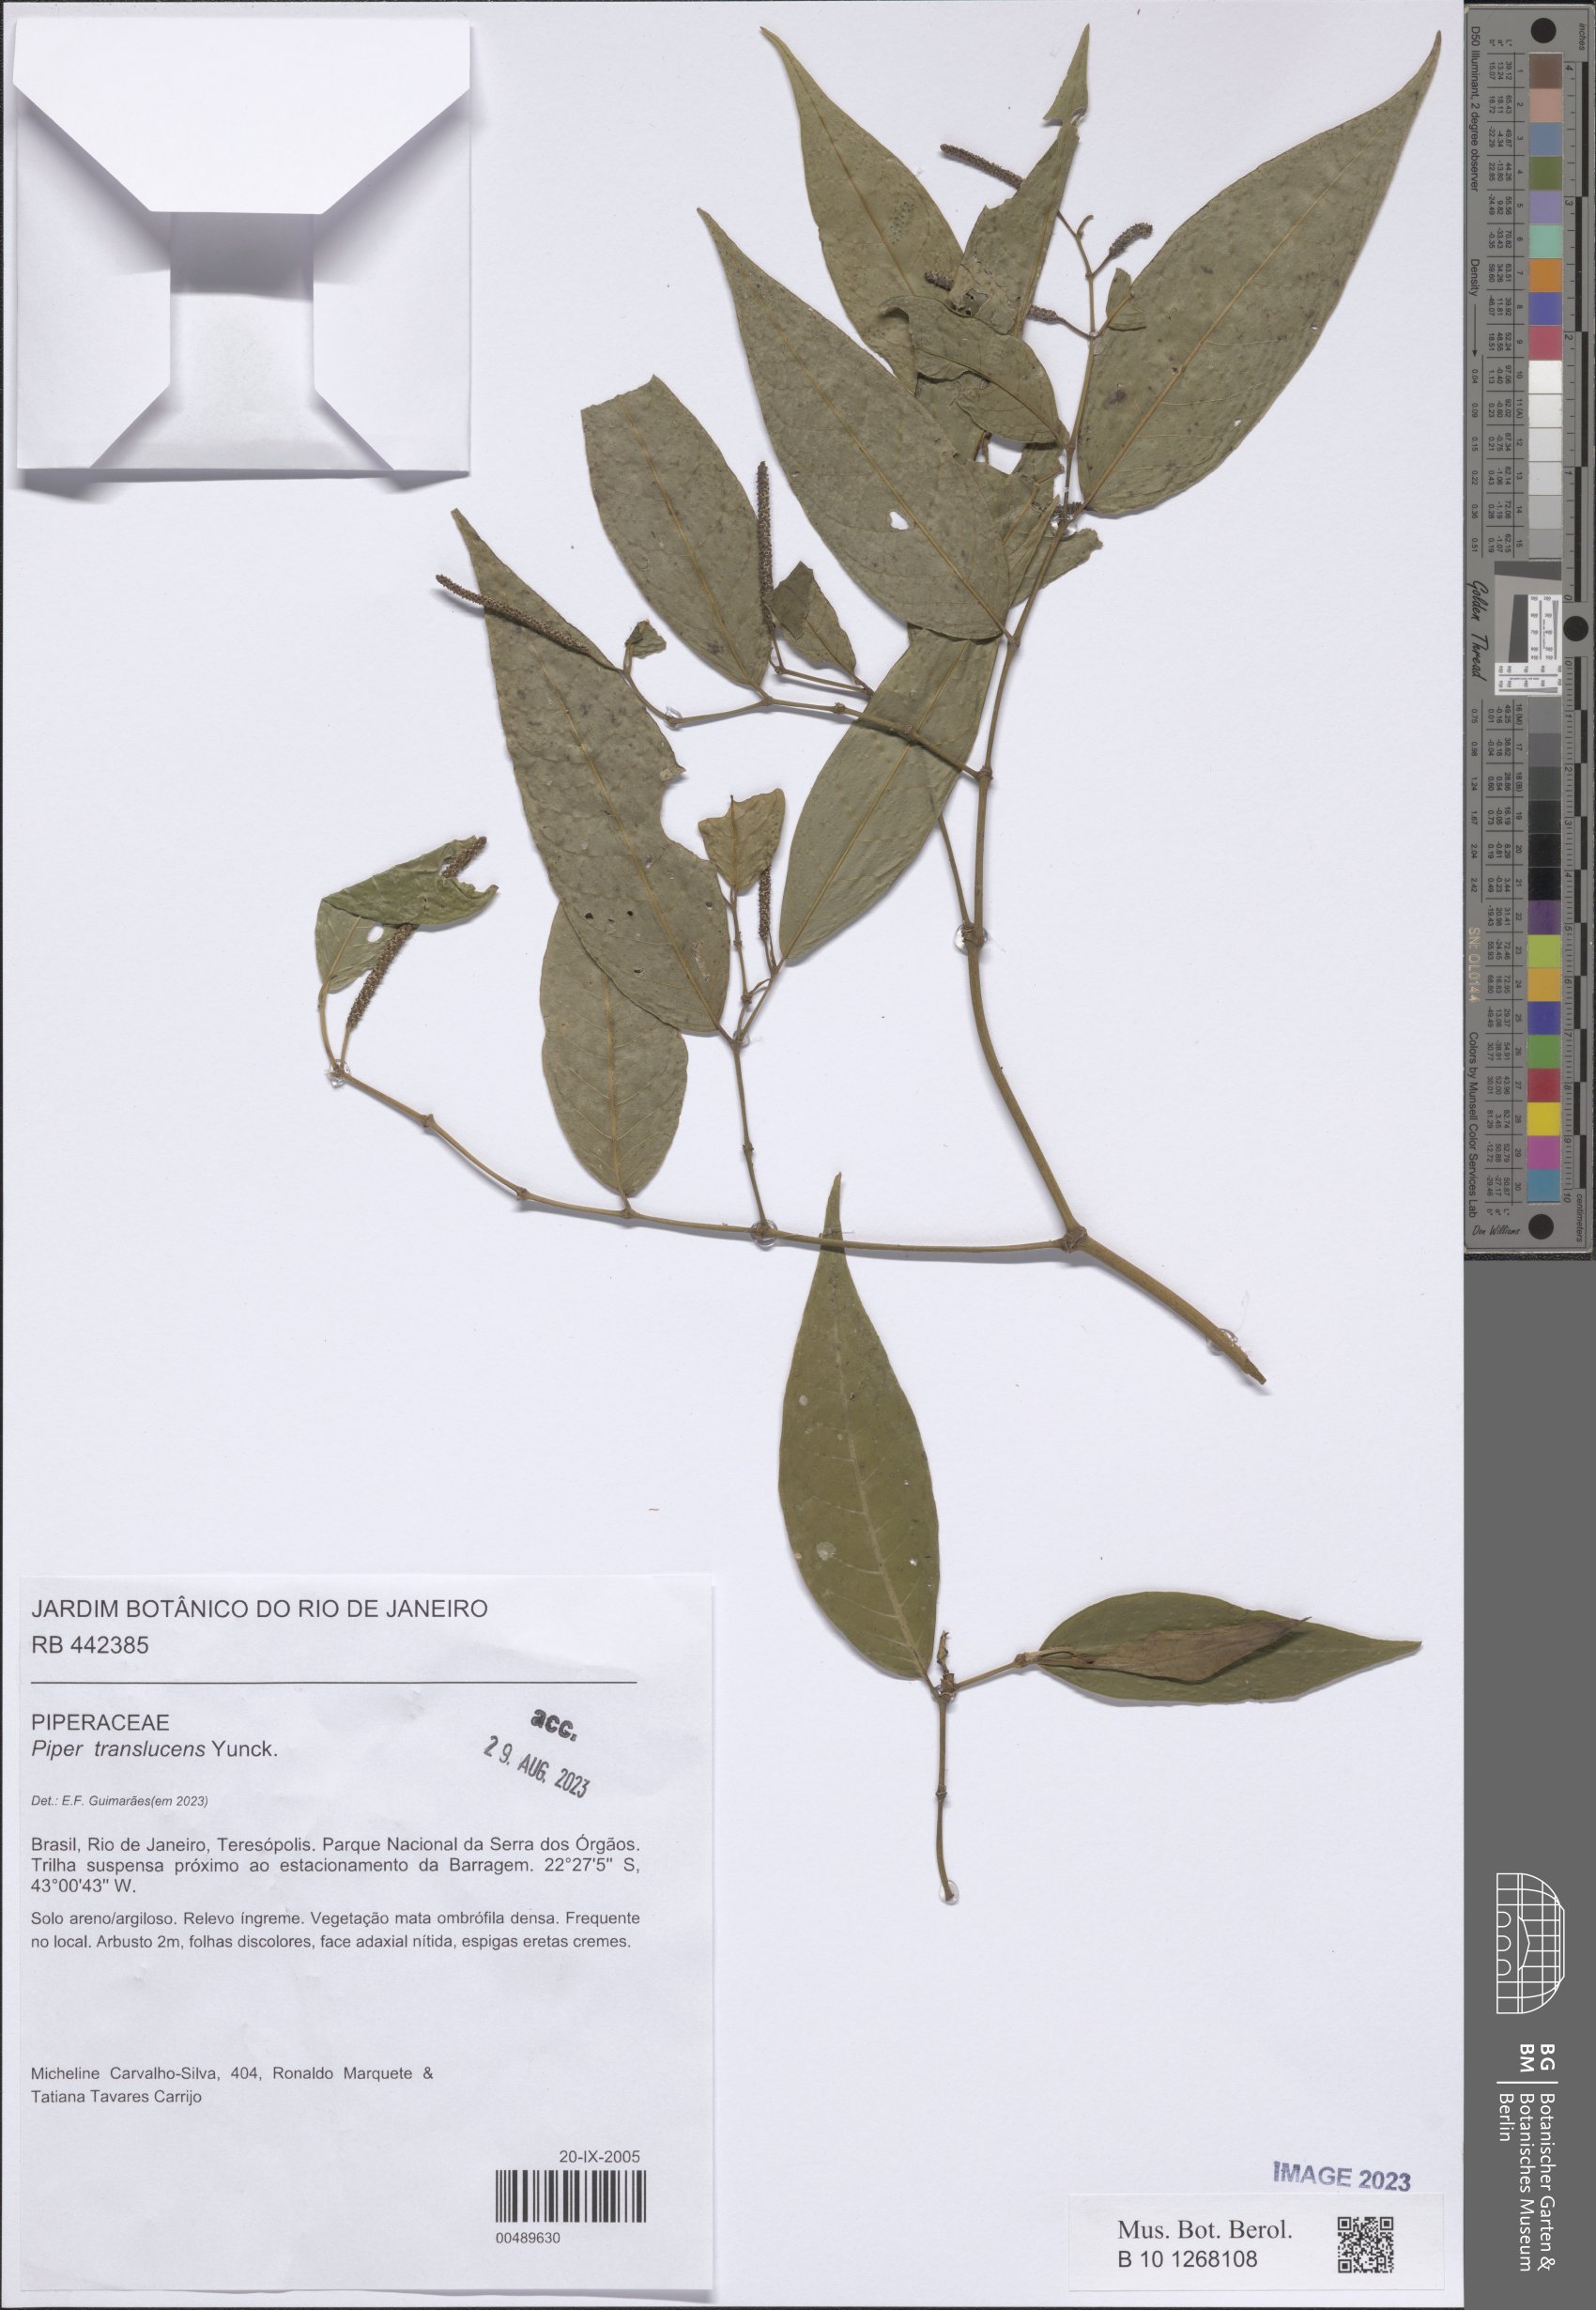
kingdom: Plantae
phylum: Tracheophyta
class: Magnoliopsida
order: Piperales
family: Piperaceae
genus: Piper
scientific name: Piper translucens
